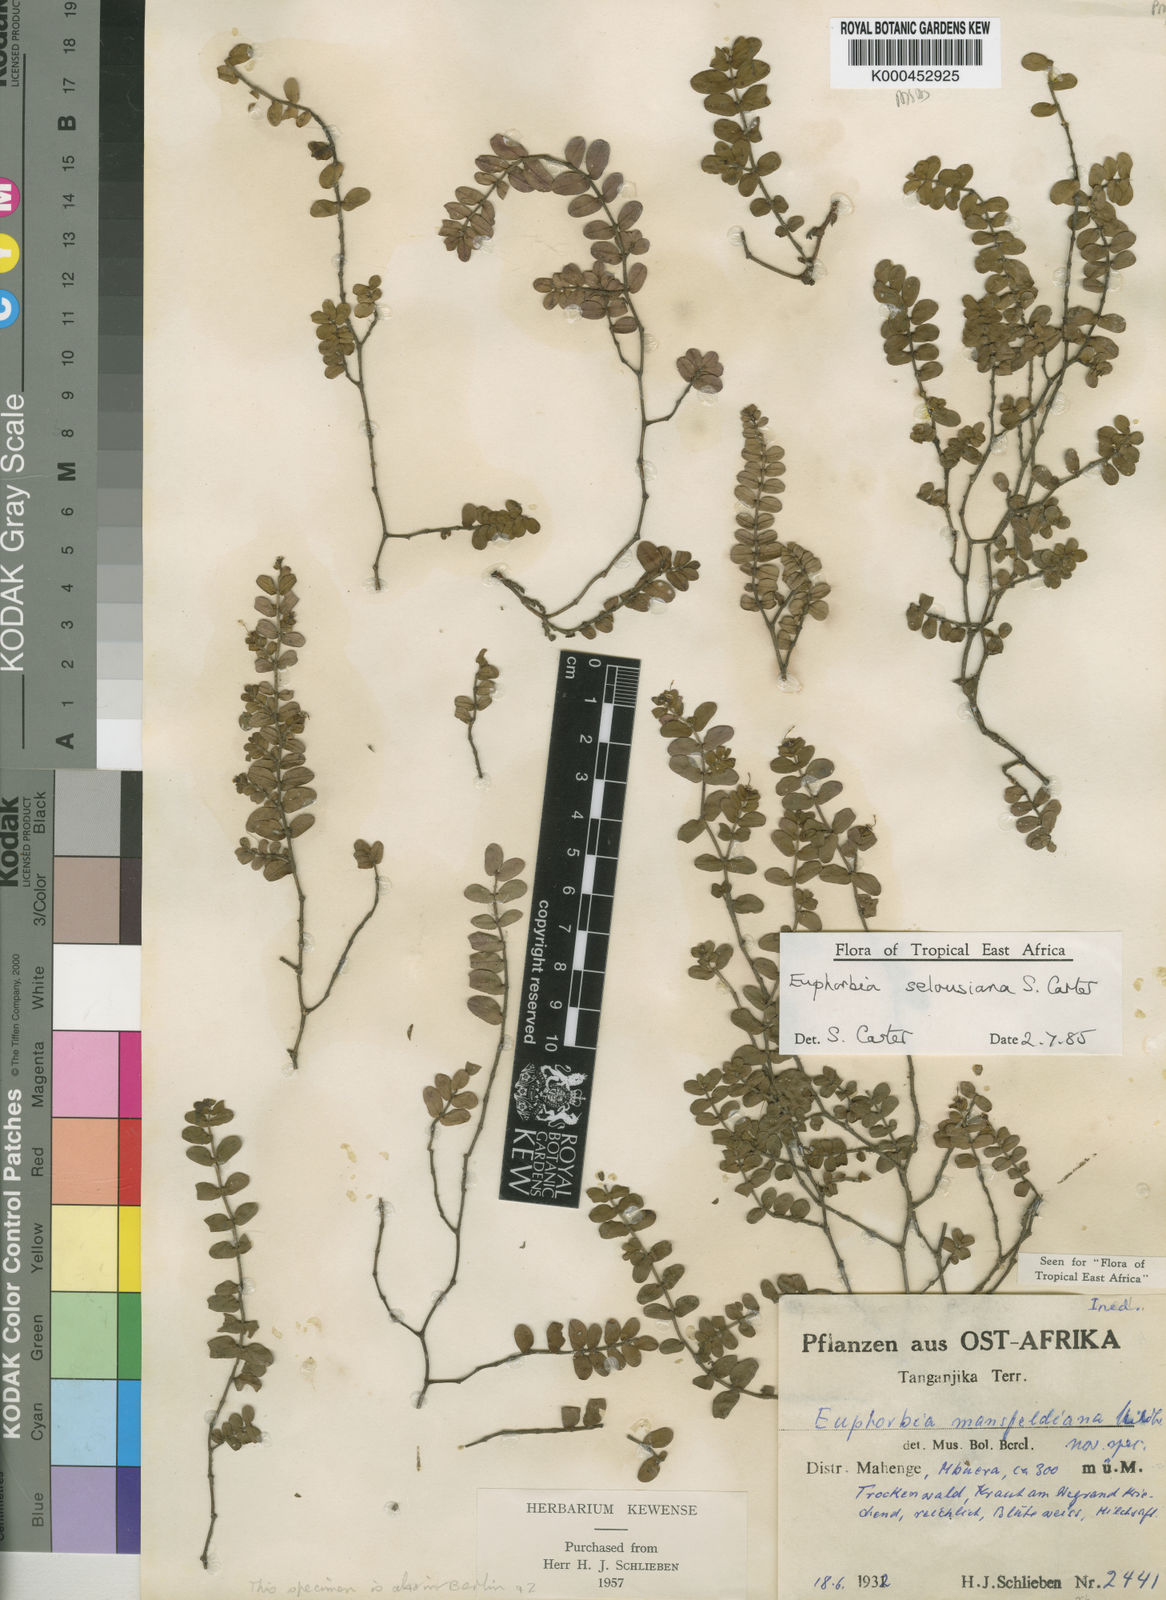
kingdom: Plantae
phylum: Tracheophyta
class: Magnoliopsida
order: Malpighiales
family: Euphorbiaceae
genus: Euphorbia
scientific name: Euphorbia selousiana
